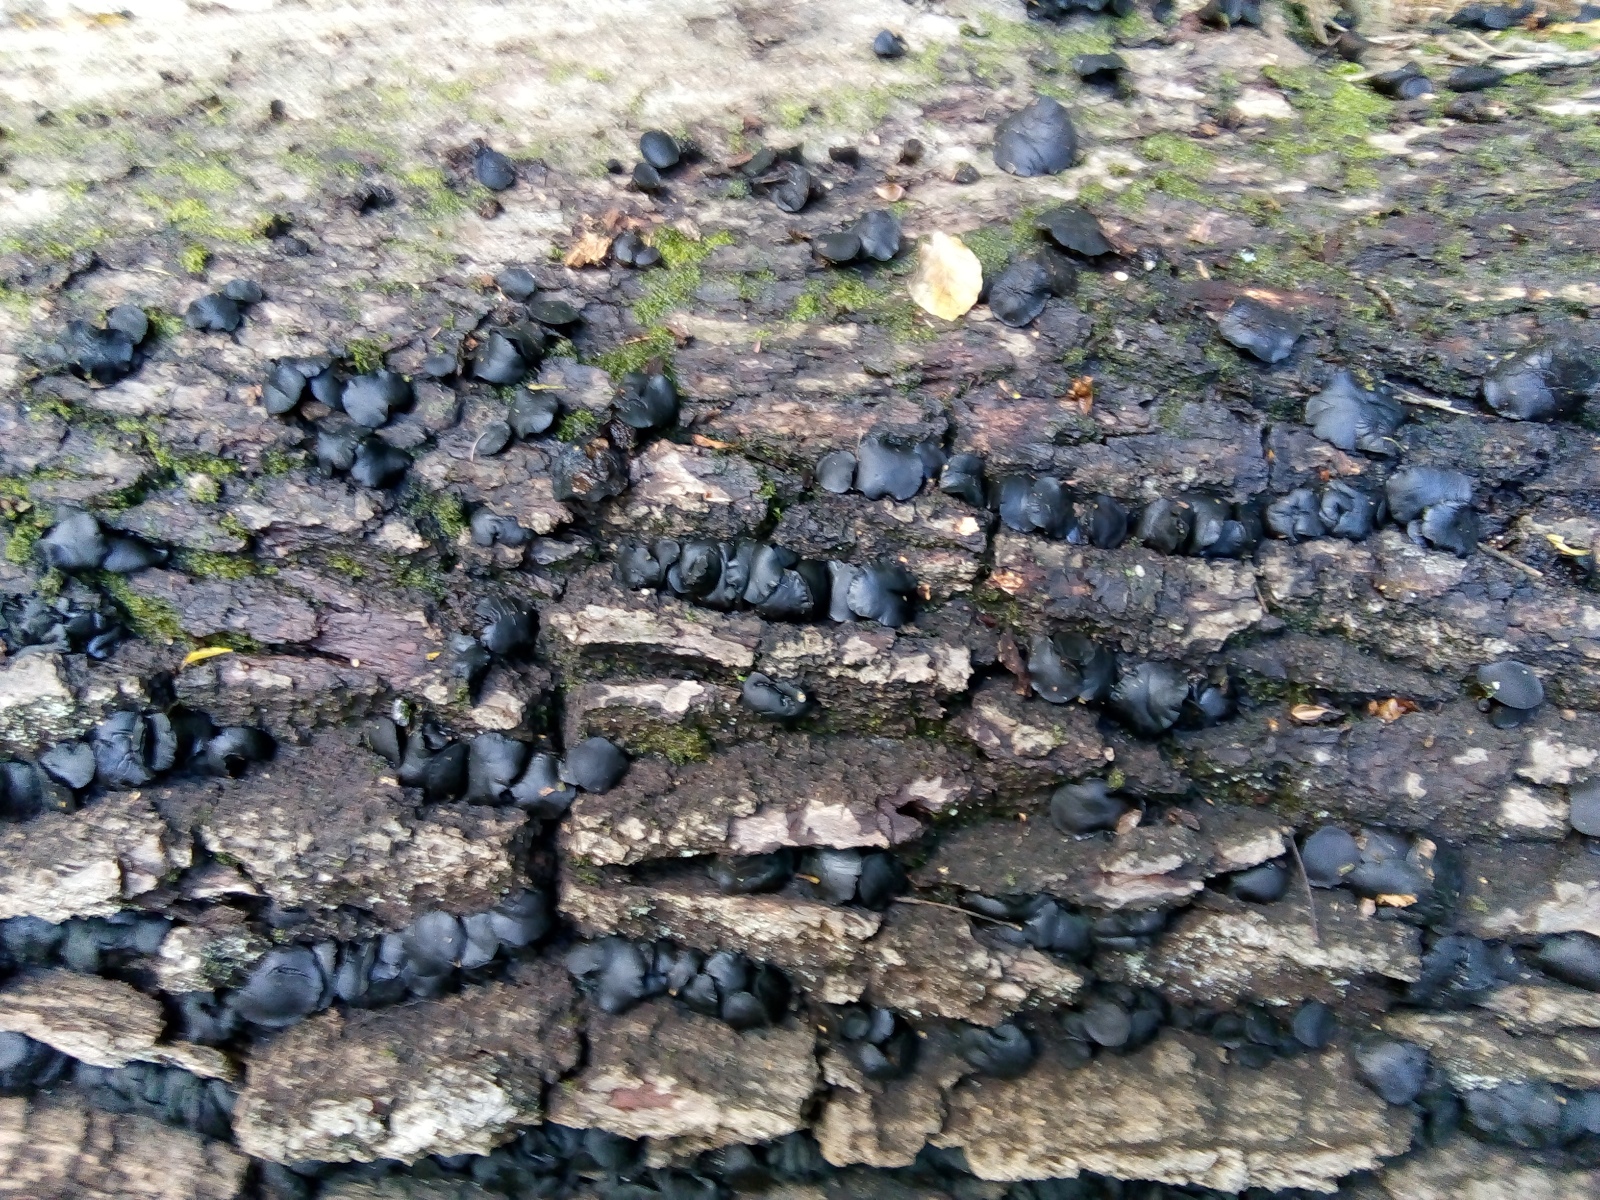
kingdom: Fungi
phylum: Ascomycota
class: Leotiomycetes
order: Phacidiales
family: Phacidiaceae
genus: Bulgaria
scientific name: Bulgaria inquinans
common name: afsmittende topsvamp
